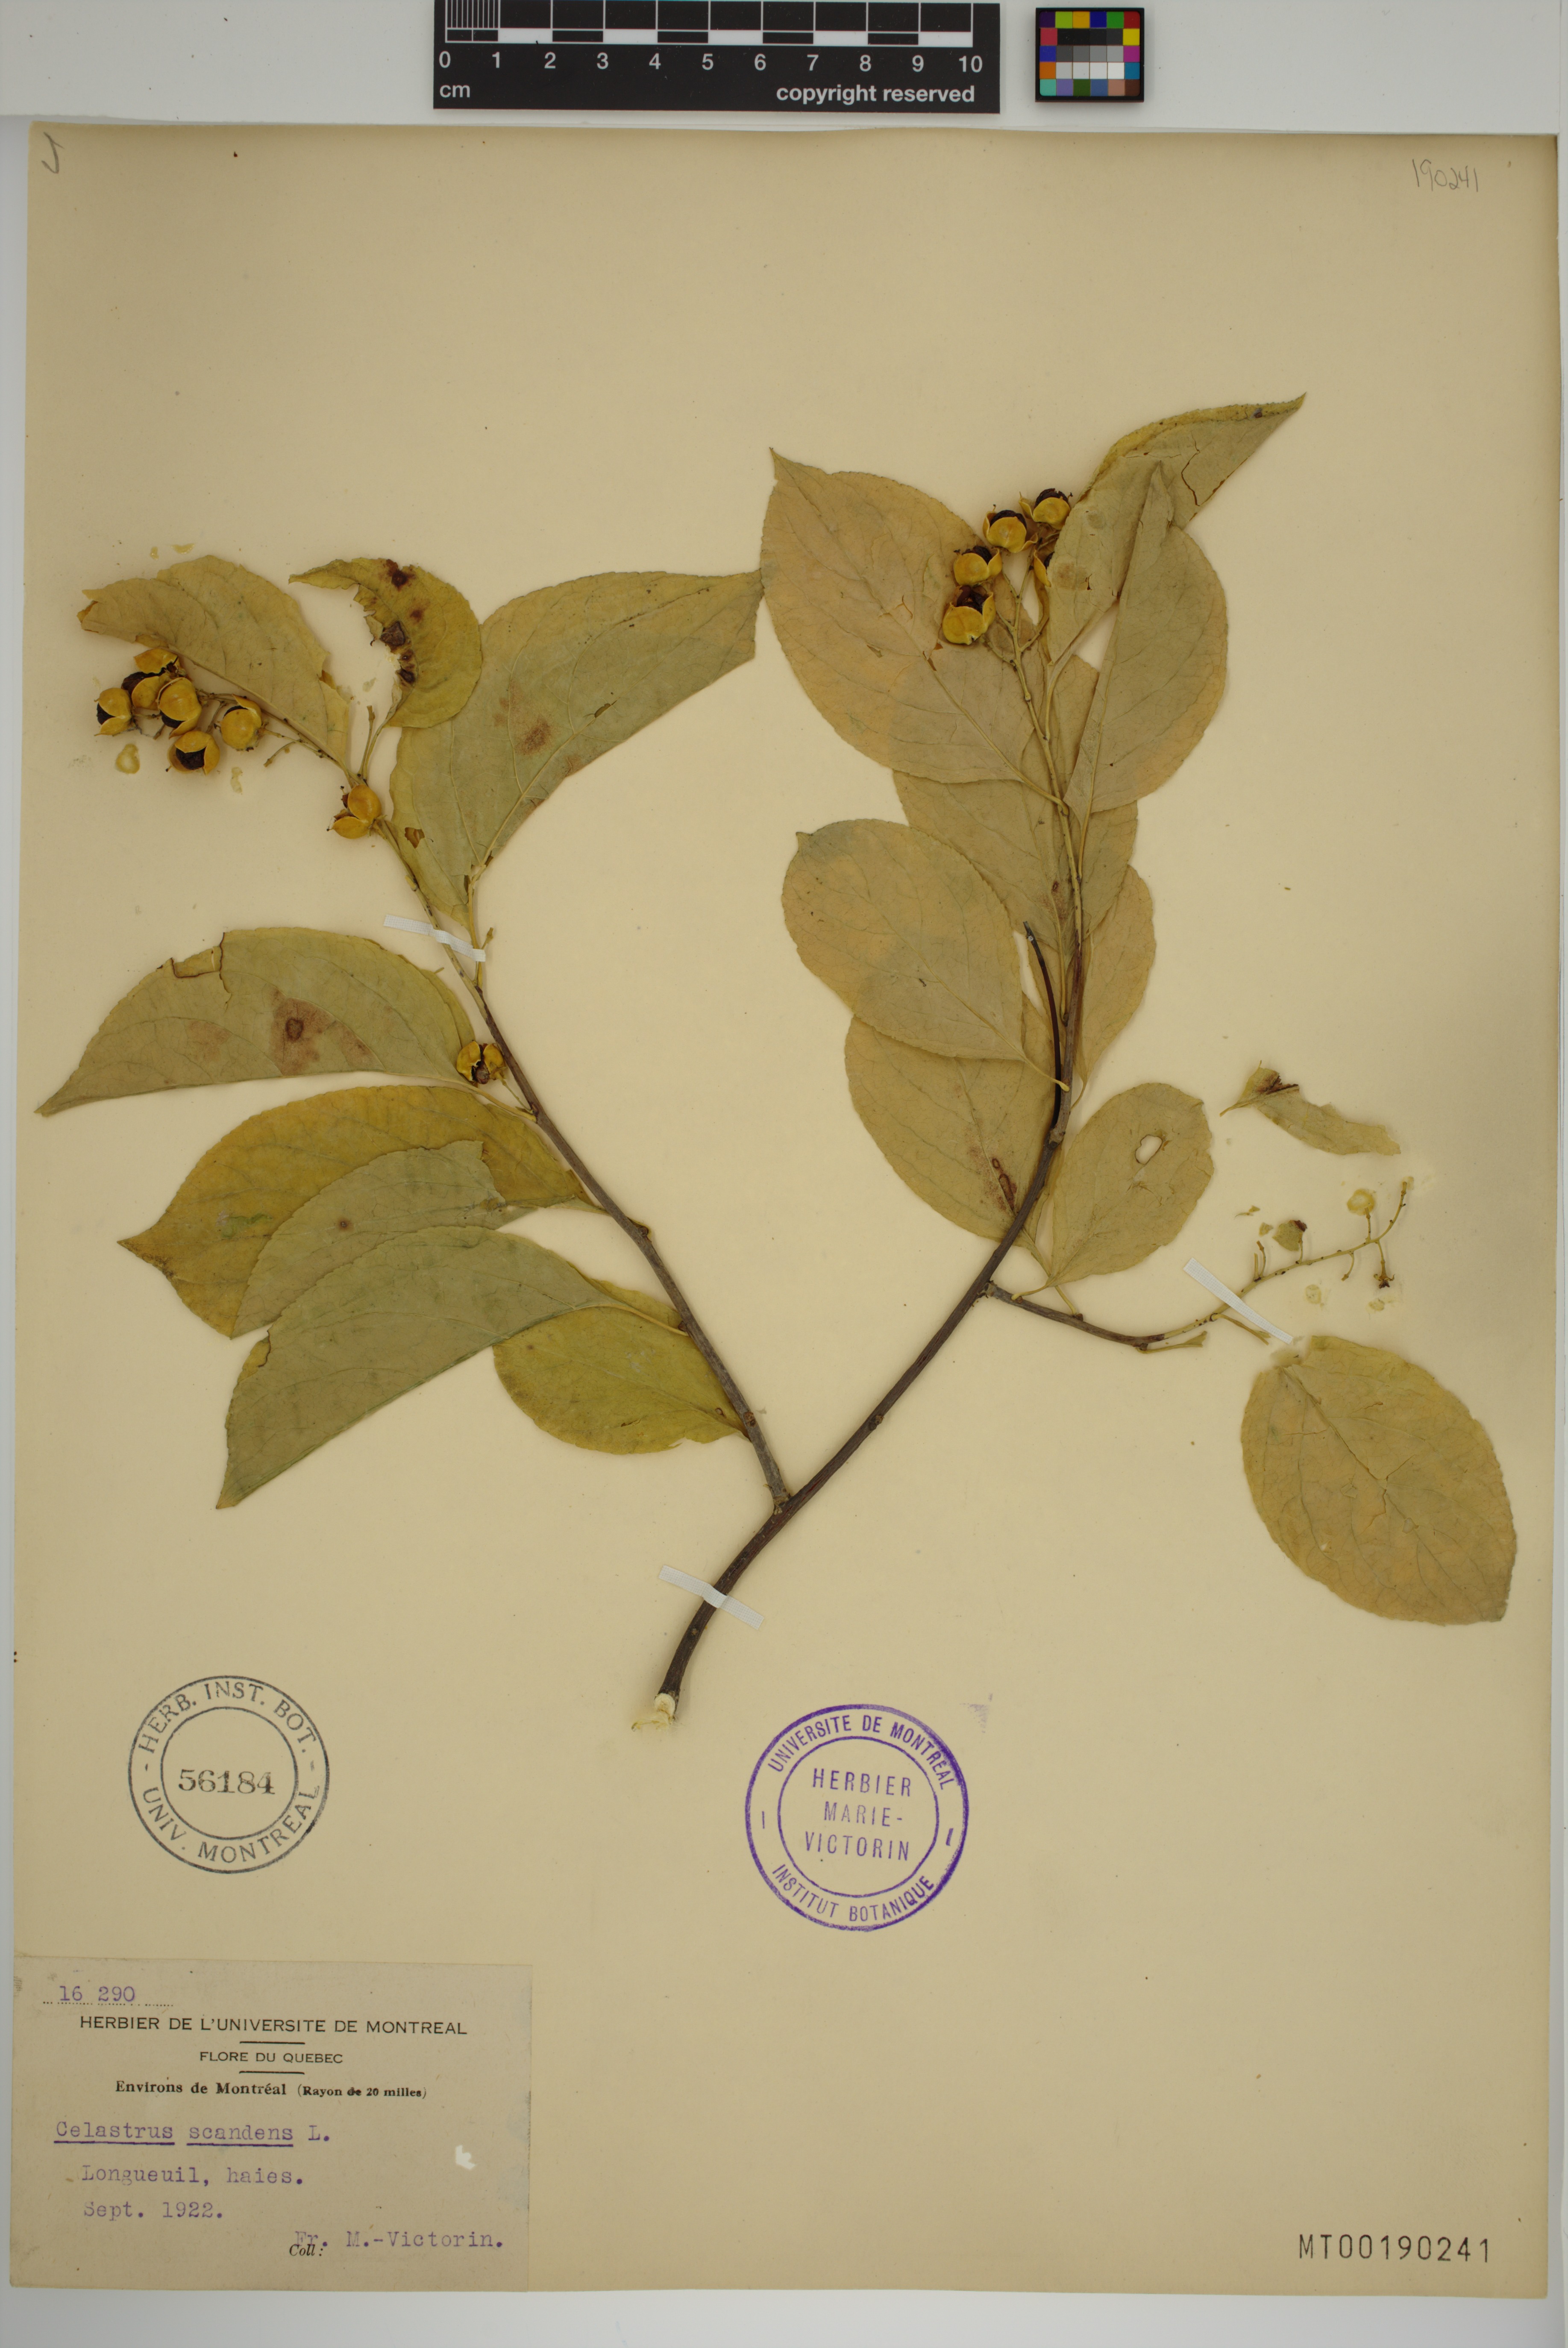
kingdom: Plantae
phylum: Tracheophyta
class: Magnoliopsida
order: Celastrales
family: Celastraceae
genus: Celastrus
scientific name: Celastrus scandens
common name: American bittersweet
